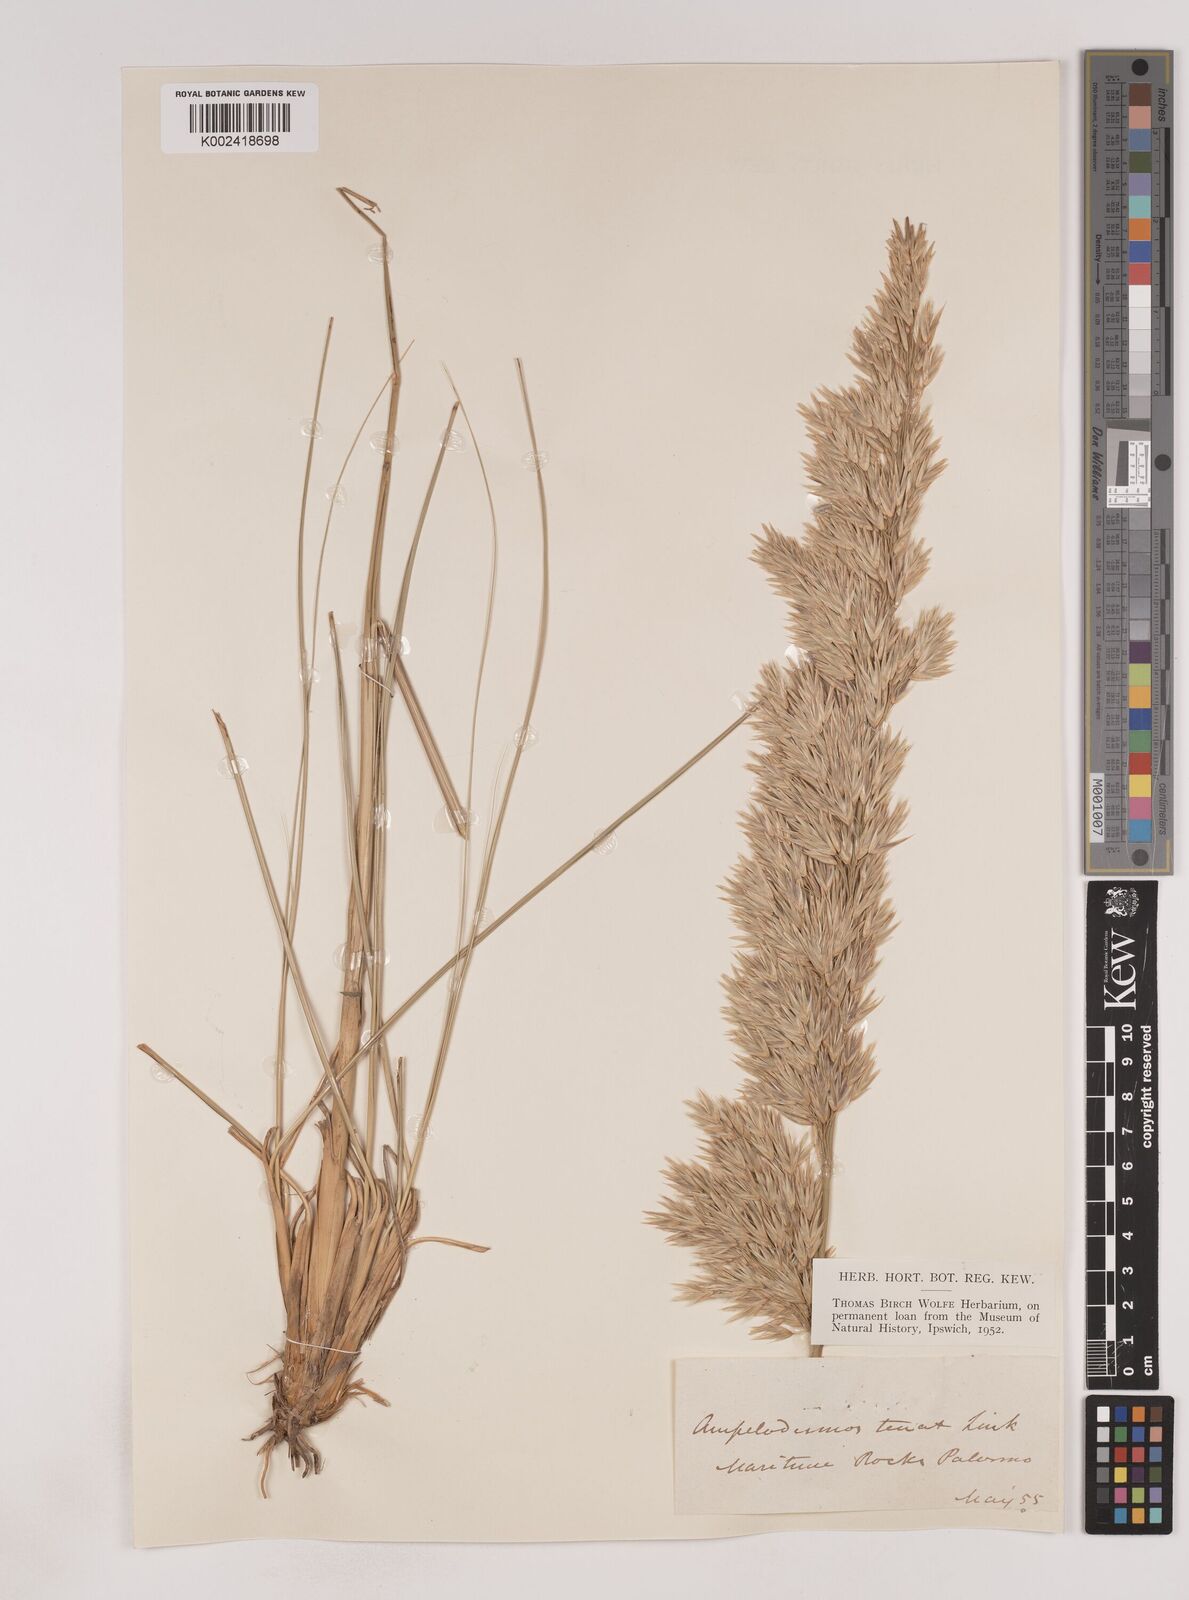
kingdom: Plantae
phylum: Tracheophyta
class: Liliopsida
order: Poales
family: Poaceae
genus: Ampelodesmos
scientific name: Ampelodesmos mauritanicus
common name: Mauritanian grass
